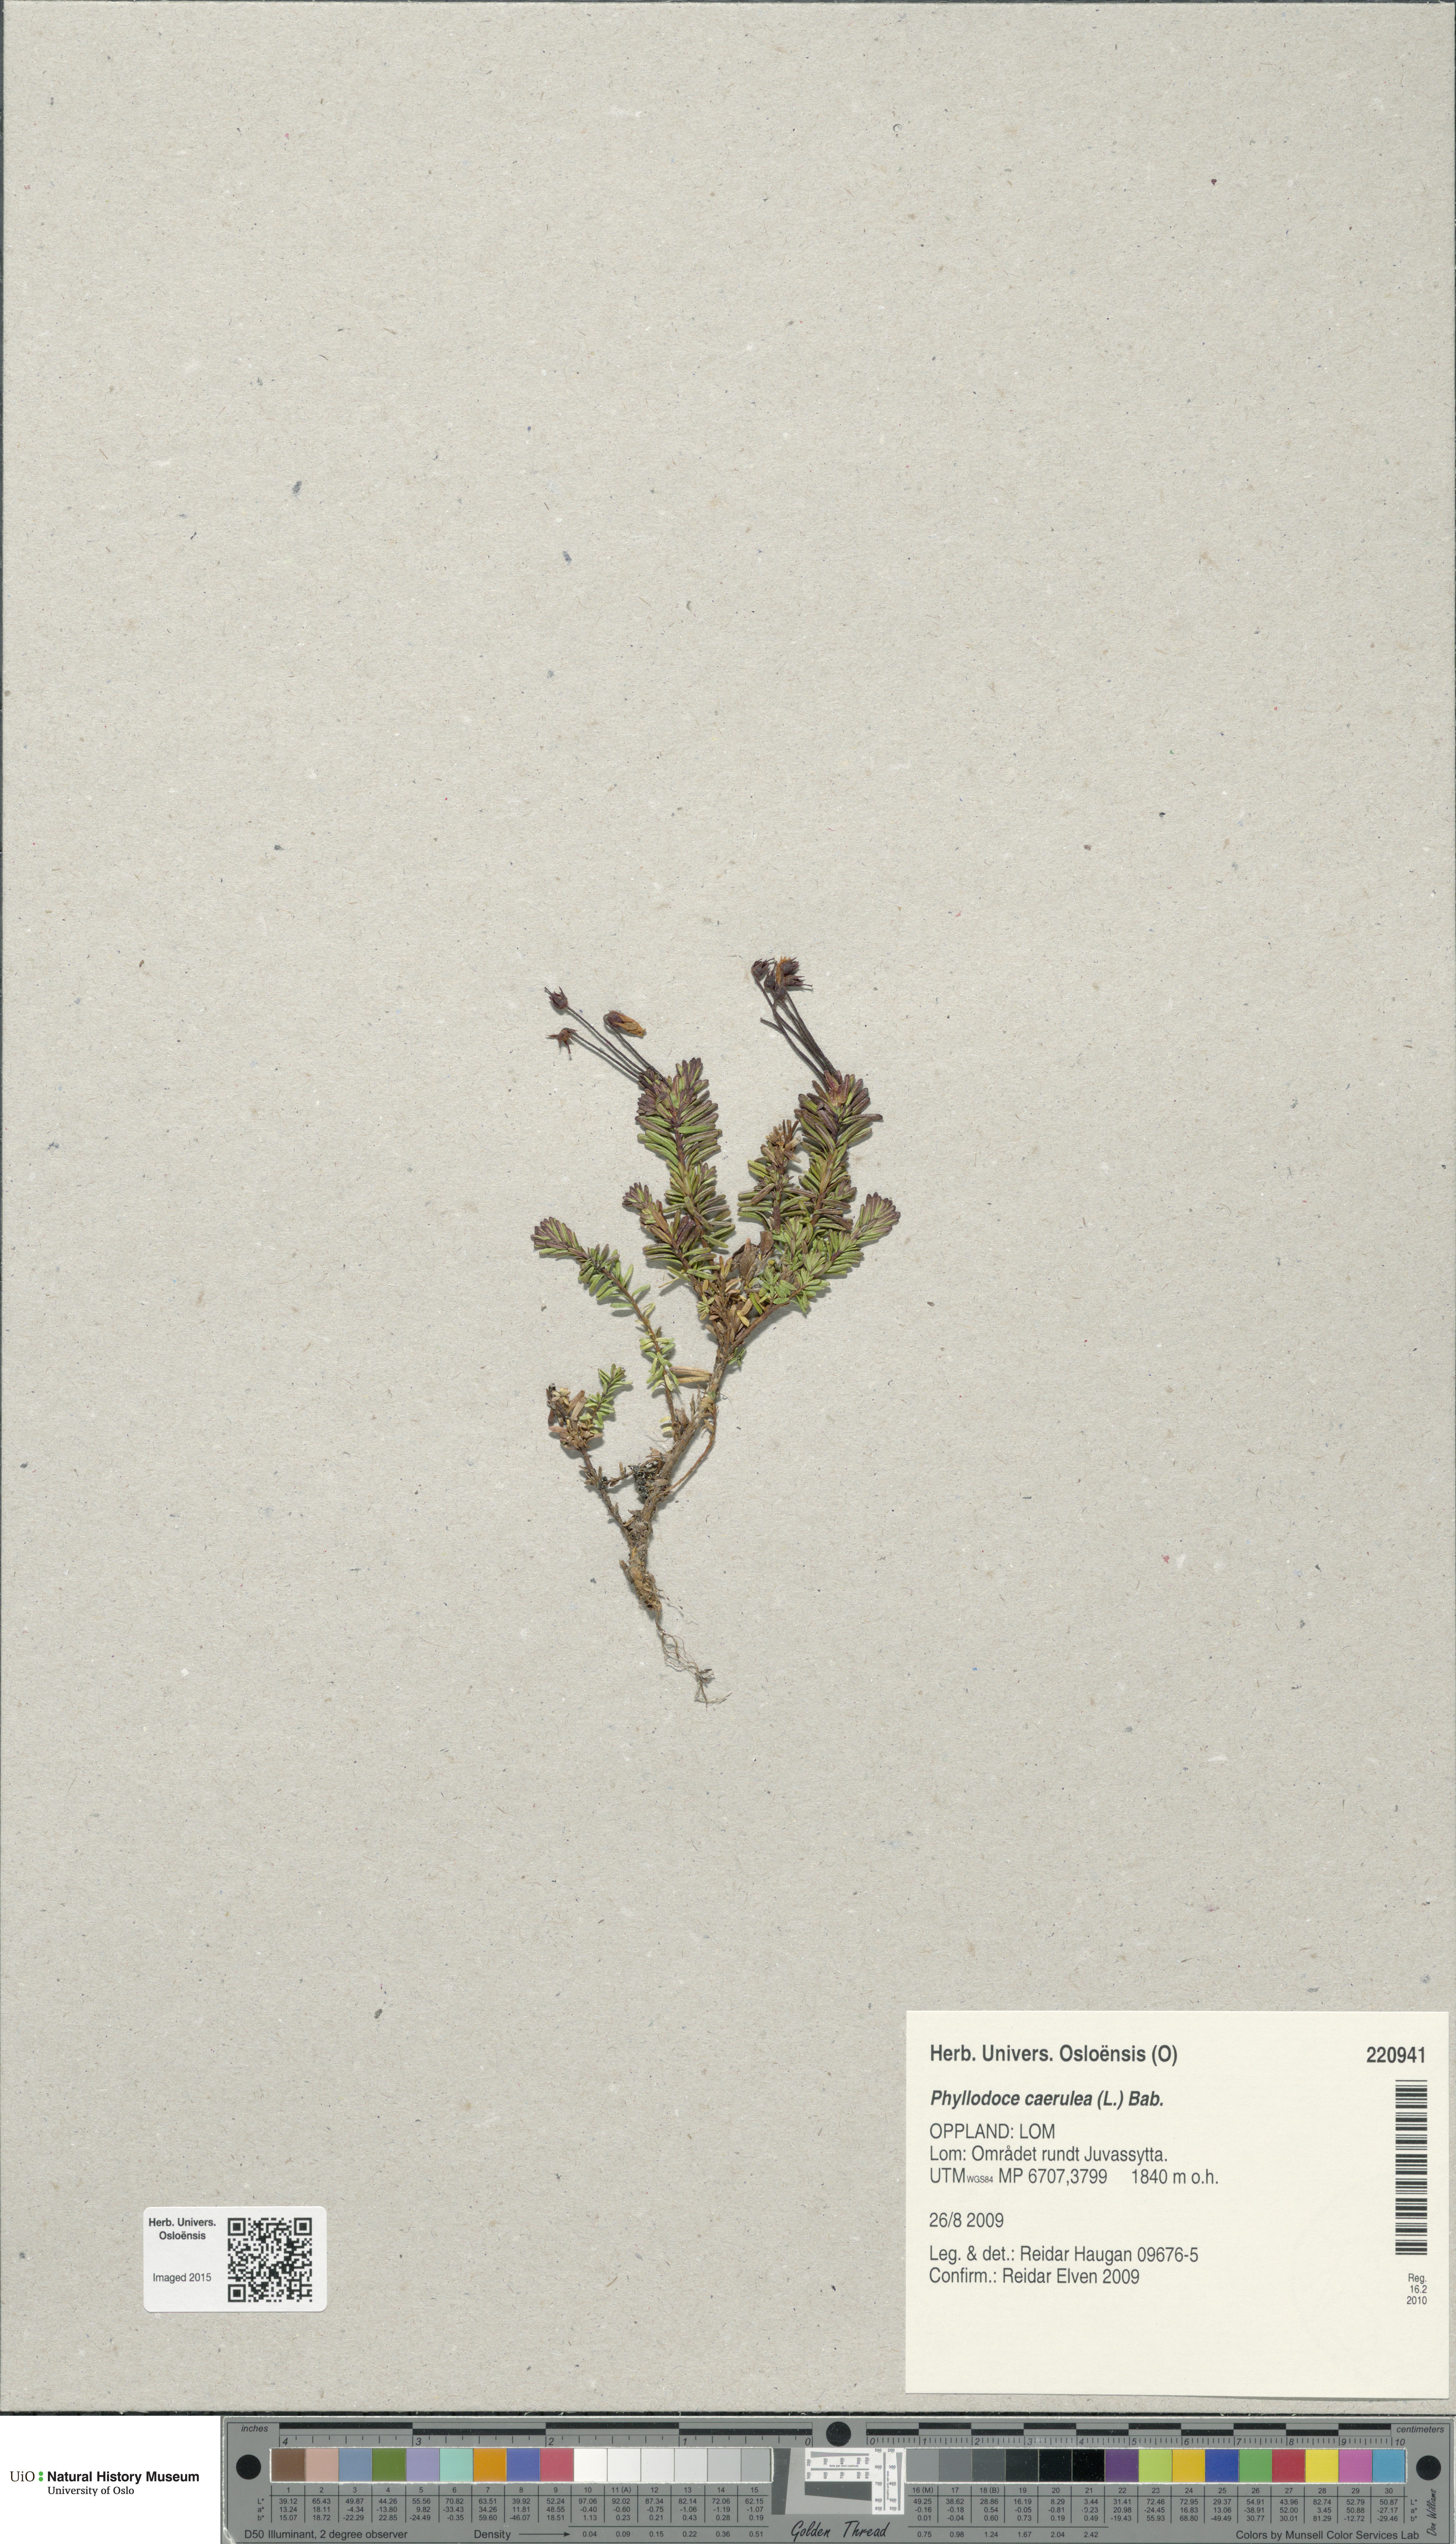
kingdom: Plantae
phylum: Tracheophyta
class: Magnoliopsida
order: Ericales
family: Ericaceae
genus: Phyllodoce
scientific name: Phyllodoce caerulea
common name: Blue heath
